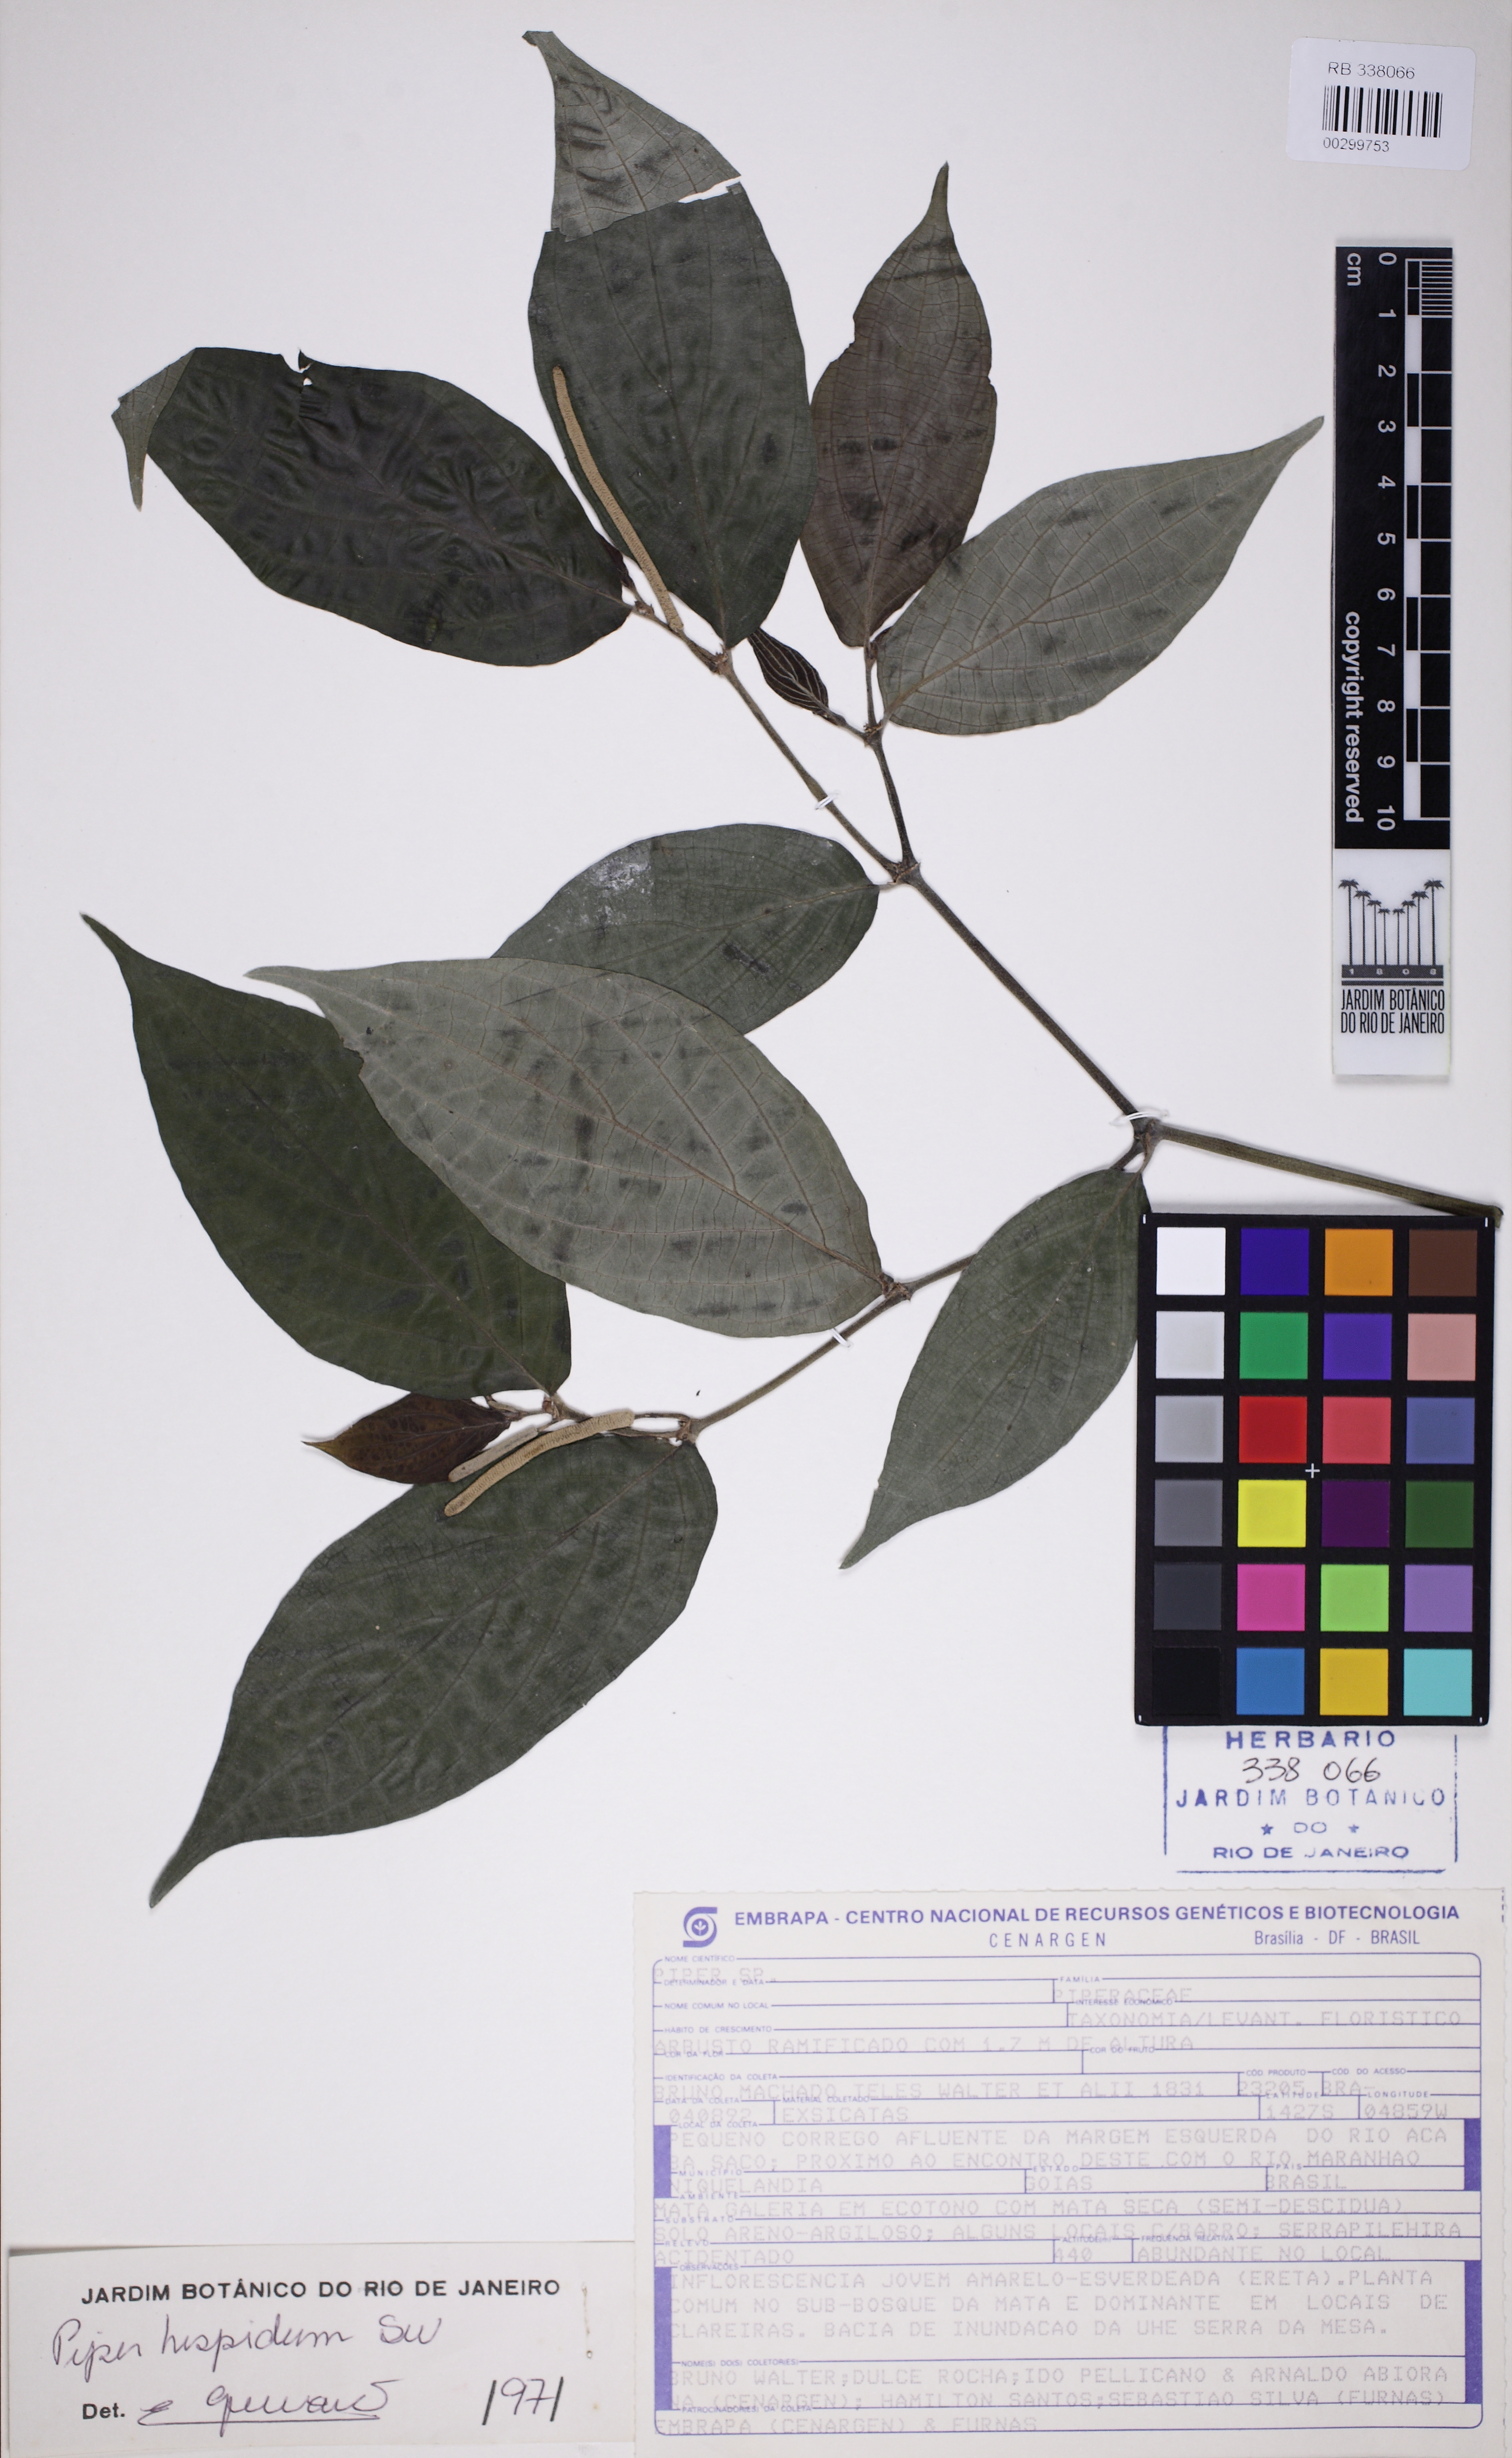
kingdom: Plantae
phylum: Tracheophyta
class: Magnoliopsida
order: Piperales
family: Piperaceae
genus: Piper
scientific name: Piper hispidum
